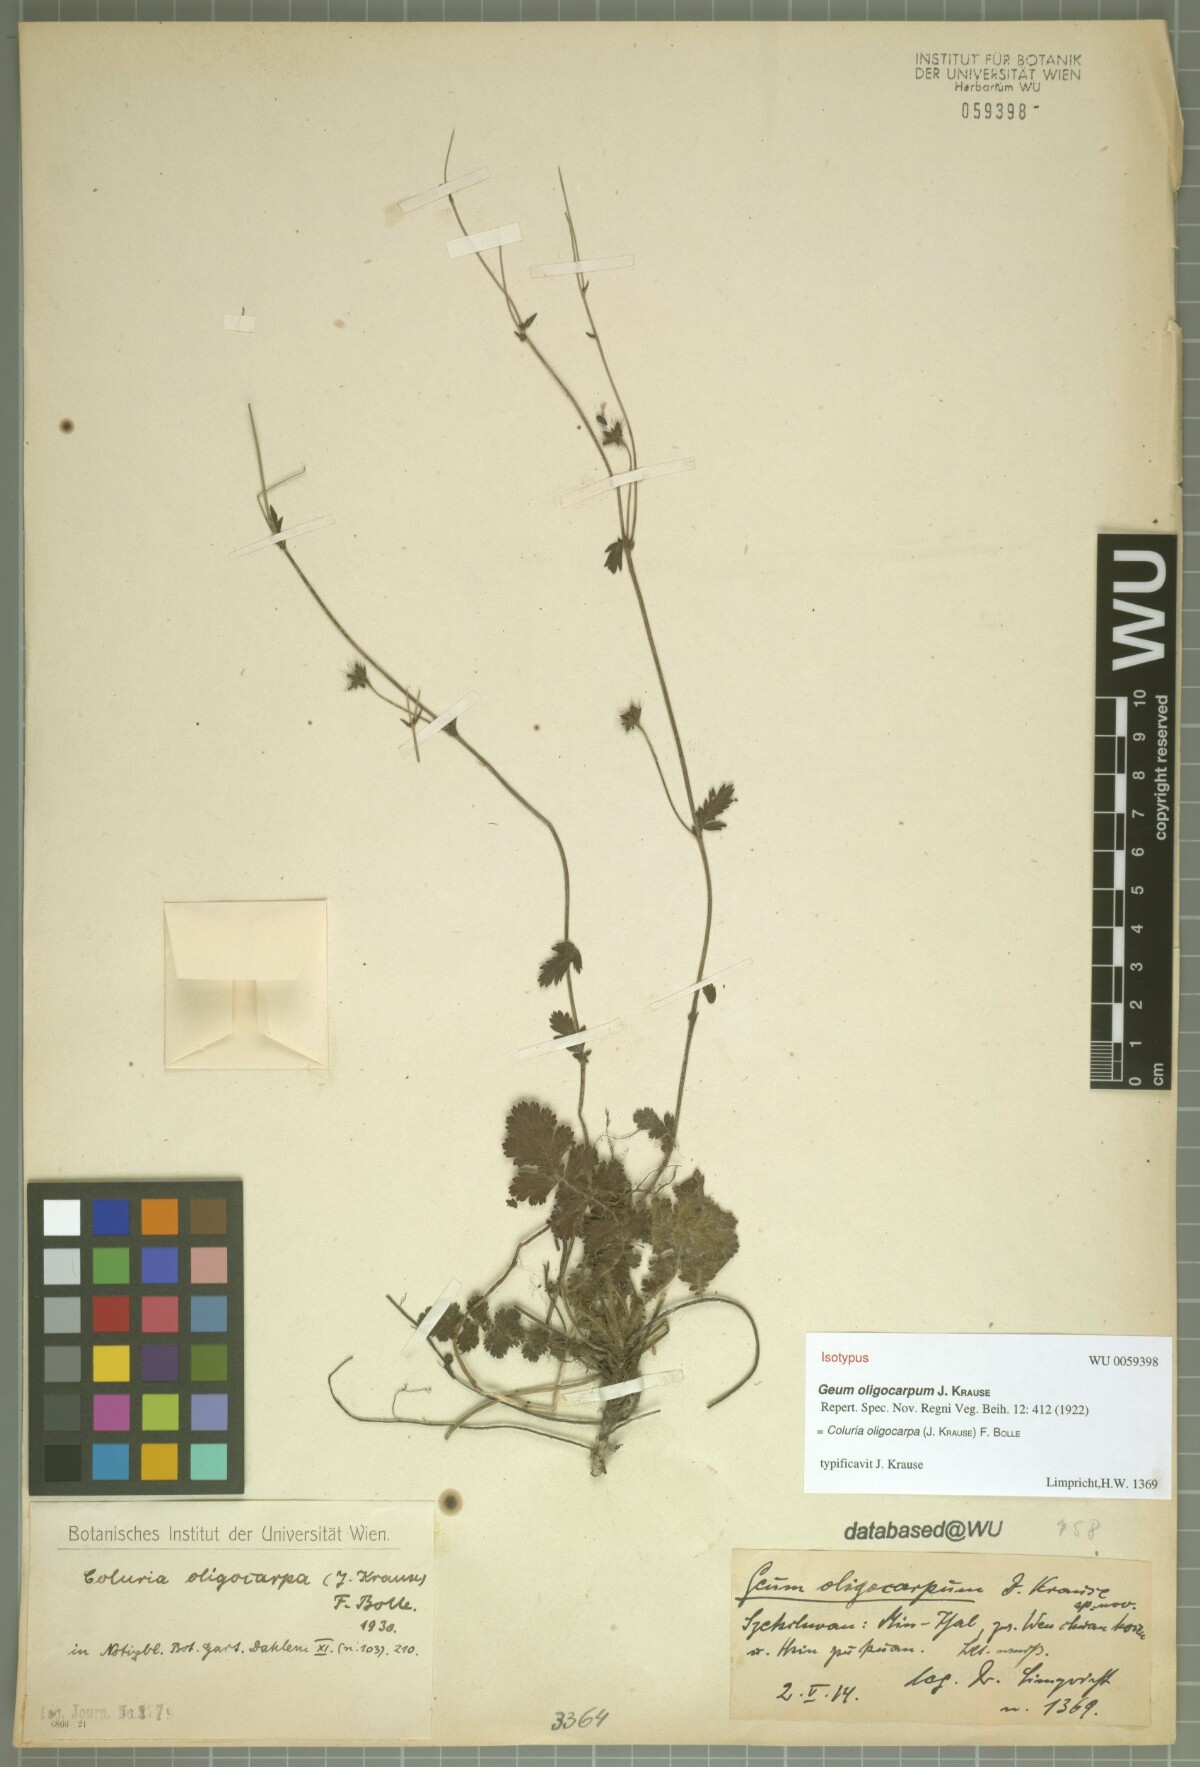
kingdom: Plantae
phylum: Tracheophyta
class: Magnoliopsida
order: Rosales
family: Rosaceae
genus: Geum
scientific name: Geum oligocarpum
